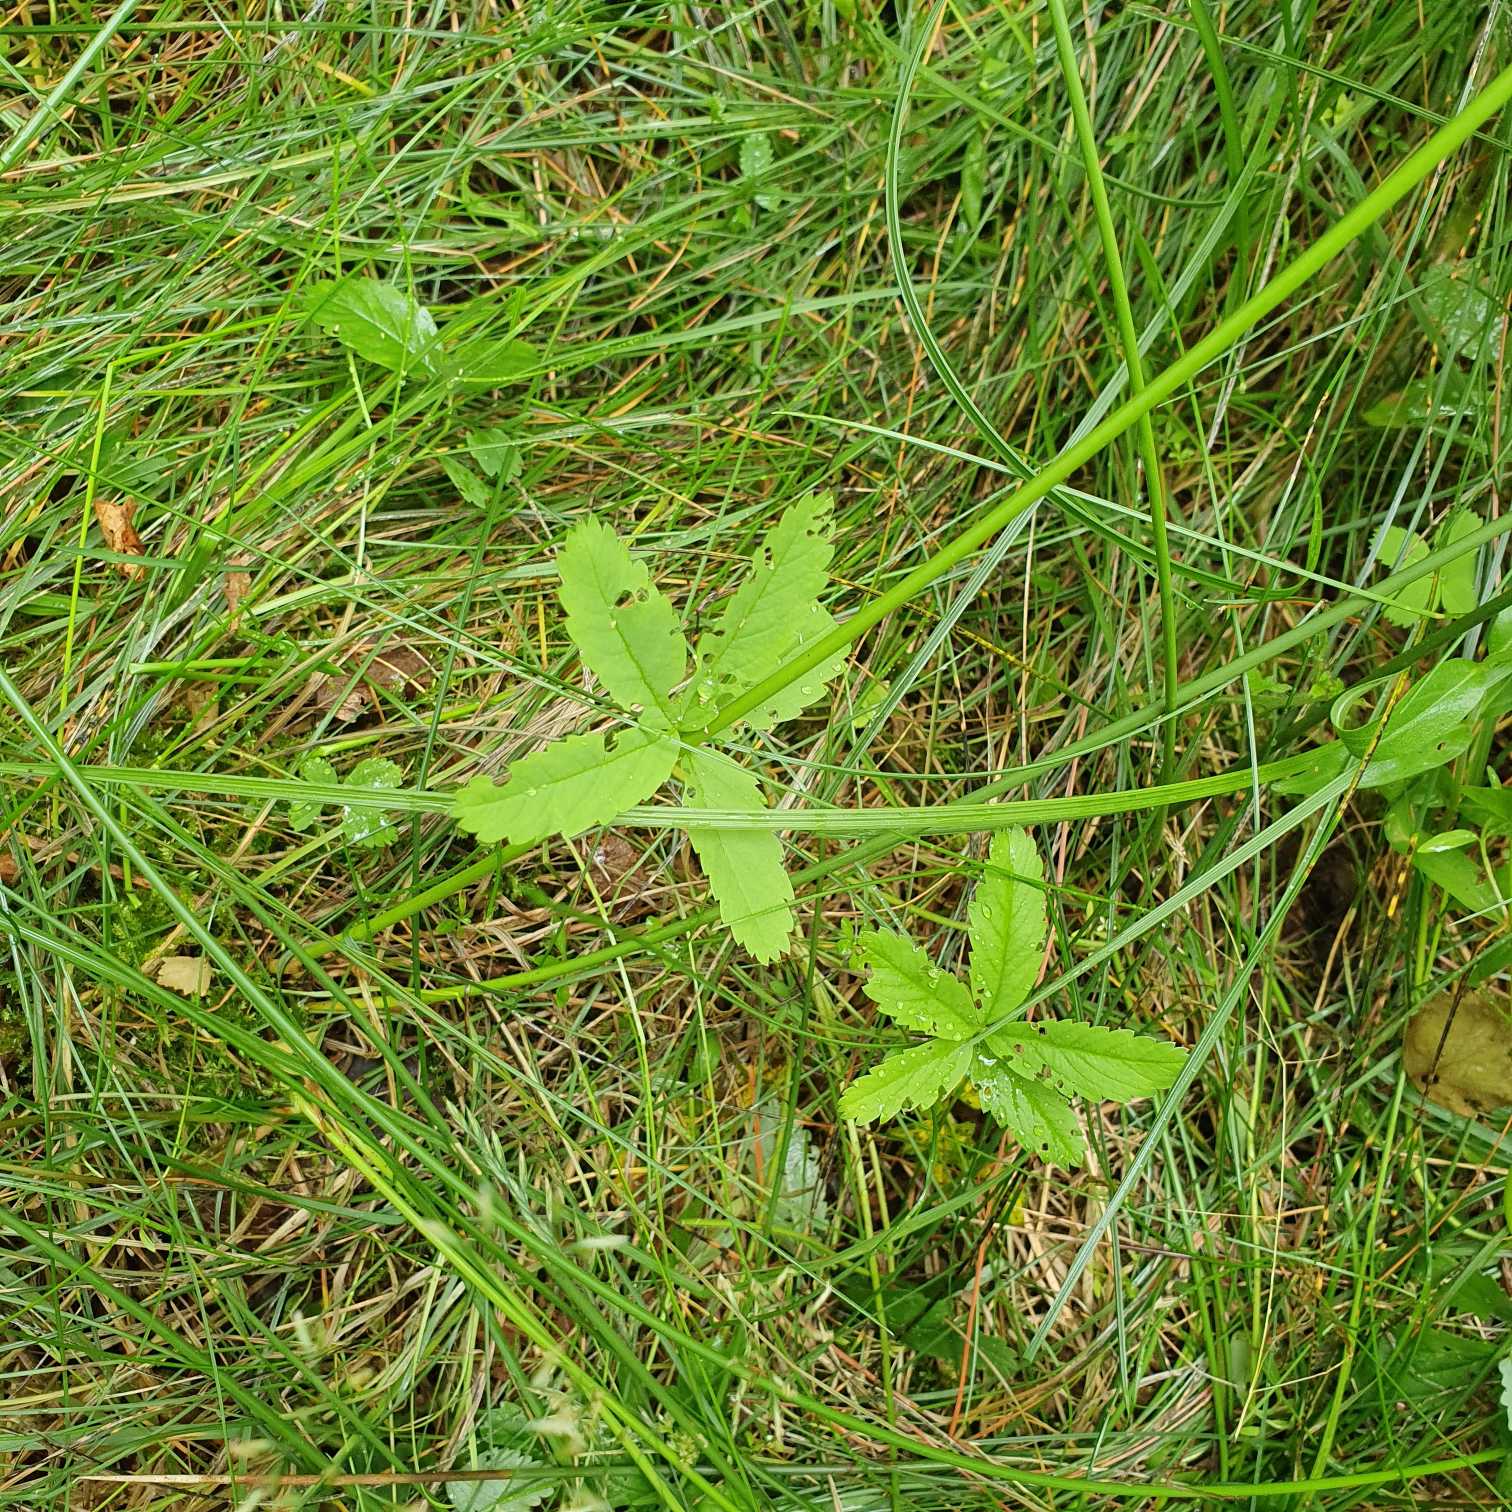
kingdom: Plantae
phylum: Tracheophyta
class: Magnoliopsida
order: Rosales
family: Rosaceae
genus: Comarum
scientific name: Comarum palustre
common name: Kragefod
